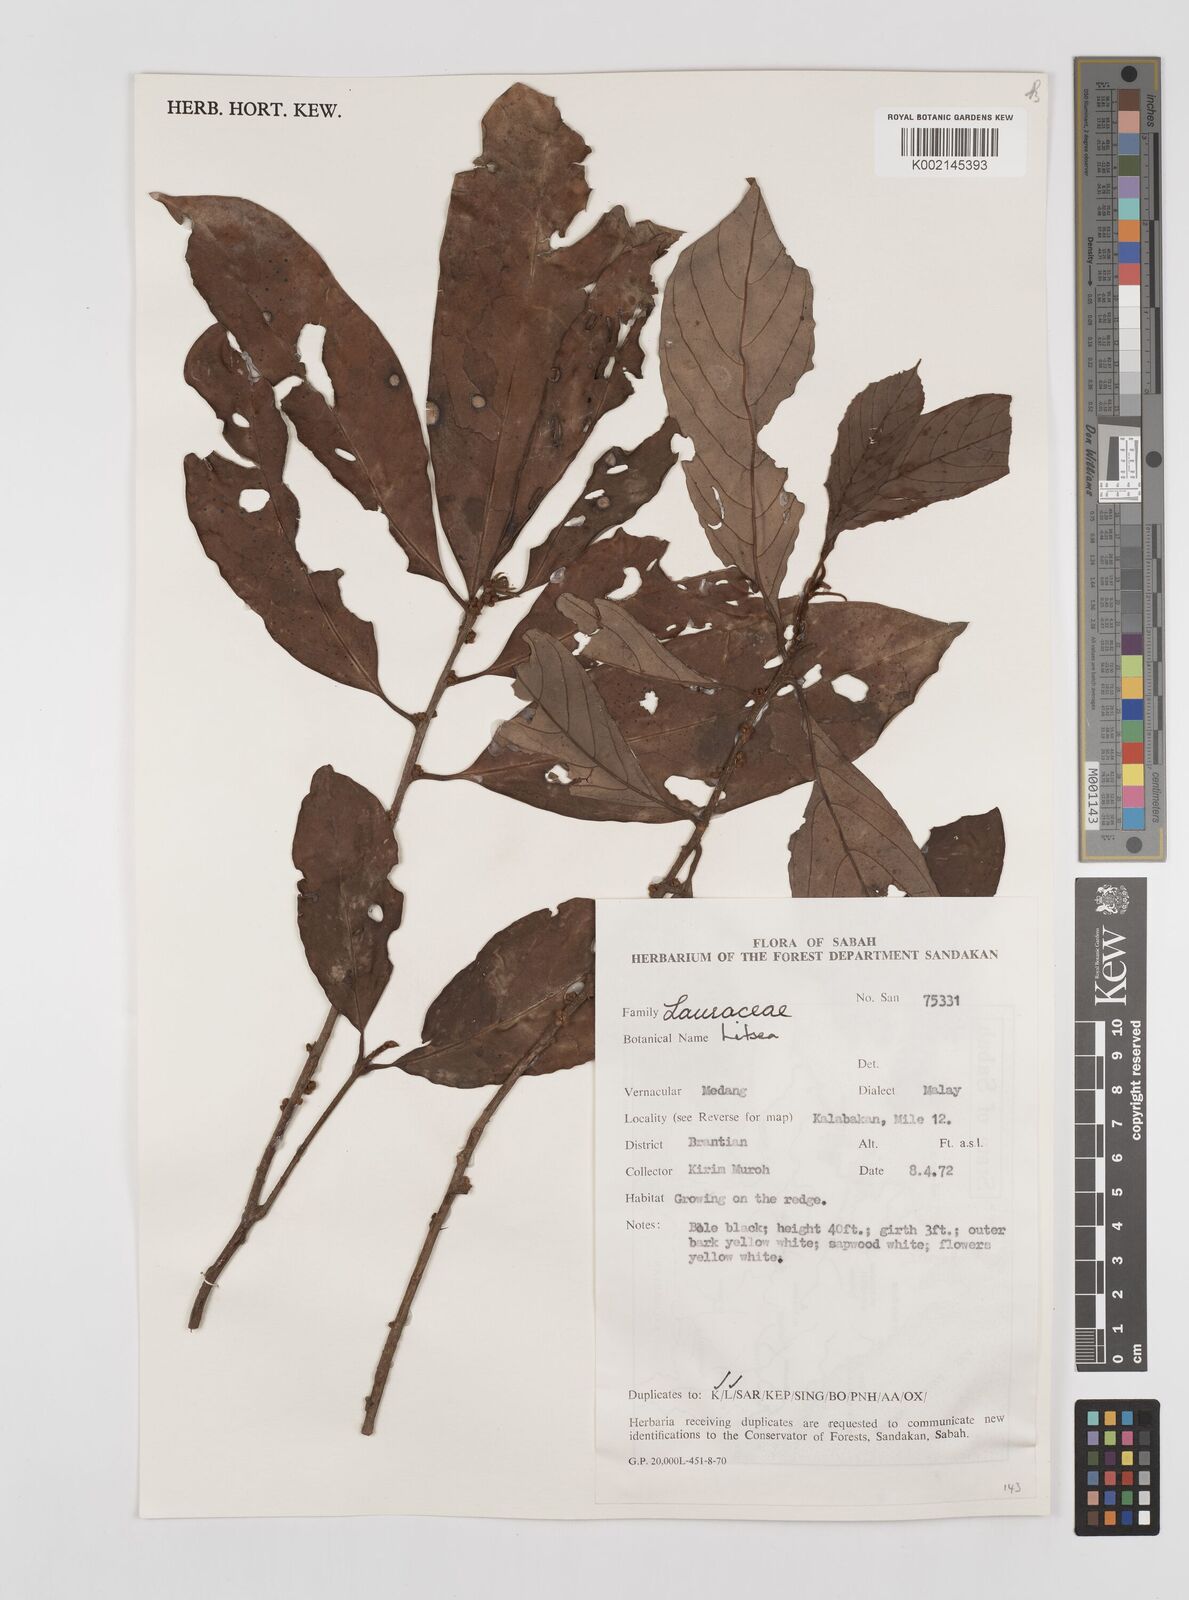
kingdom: Plantae
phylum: Tracheophyta
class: Magnoliopsida
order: Laurales
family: Lauraceae
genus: Litsea
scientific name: Litsea
